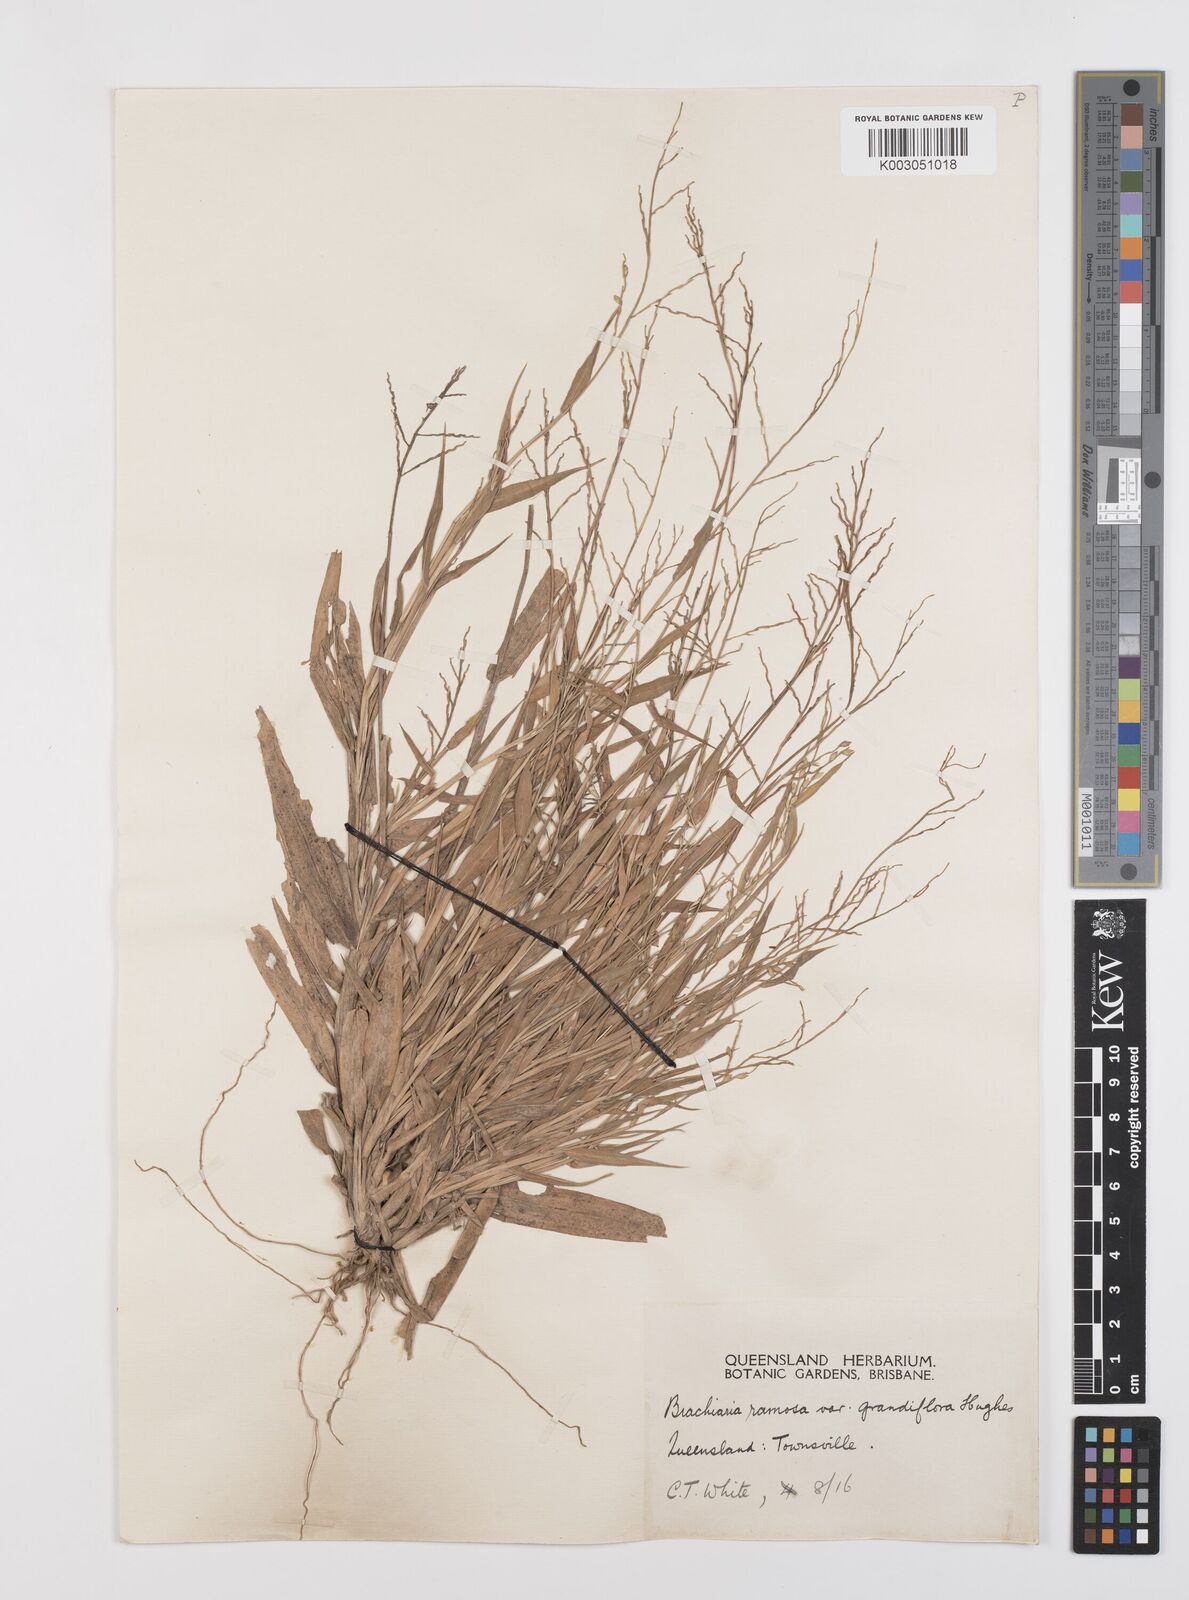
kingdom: Plantae
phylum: Tracheophyta
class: Liliopsida
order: Poales
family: Poaceae
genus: Urochloa
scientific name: Urochloa pubigera
